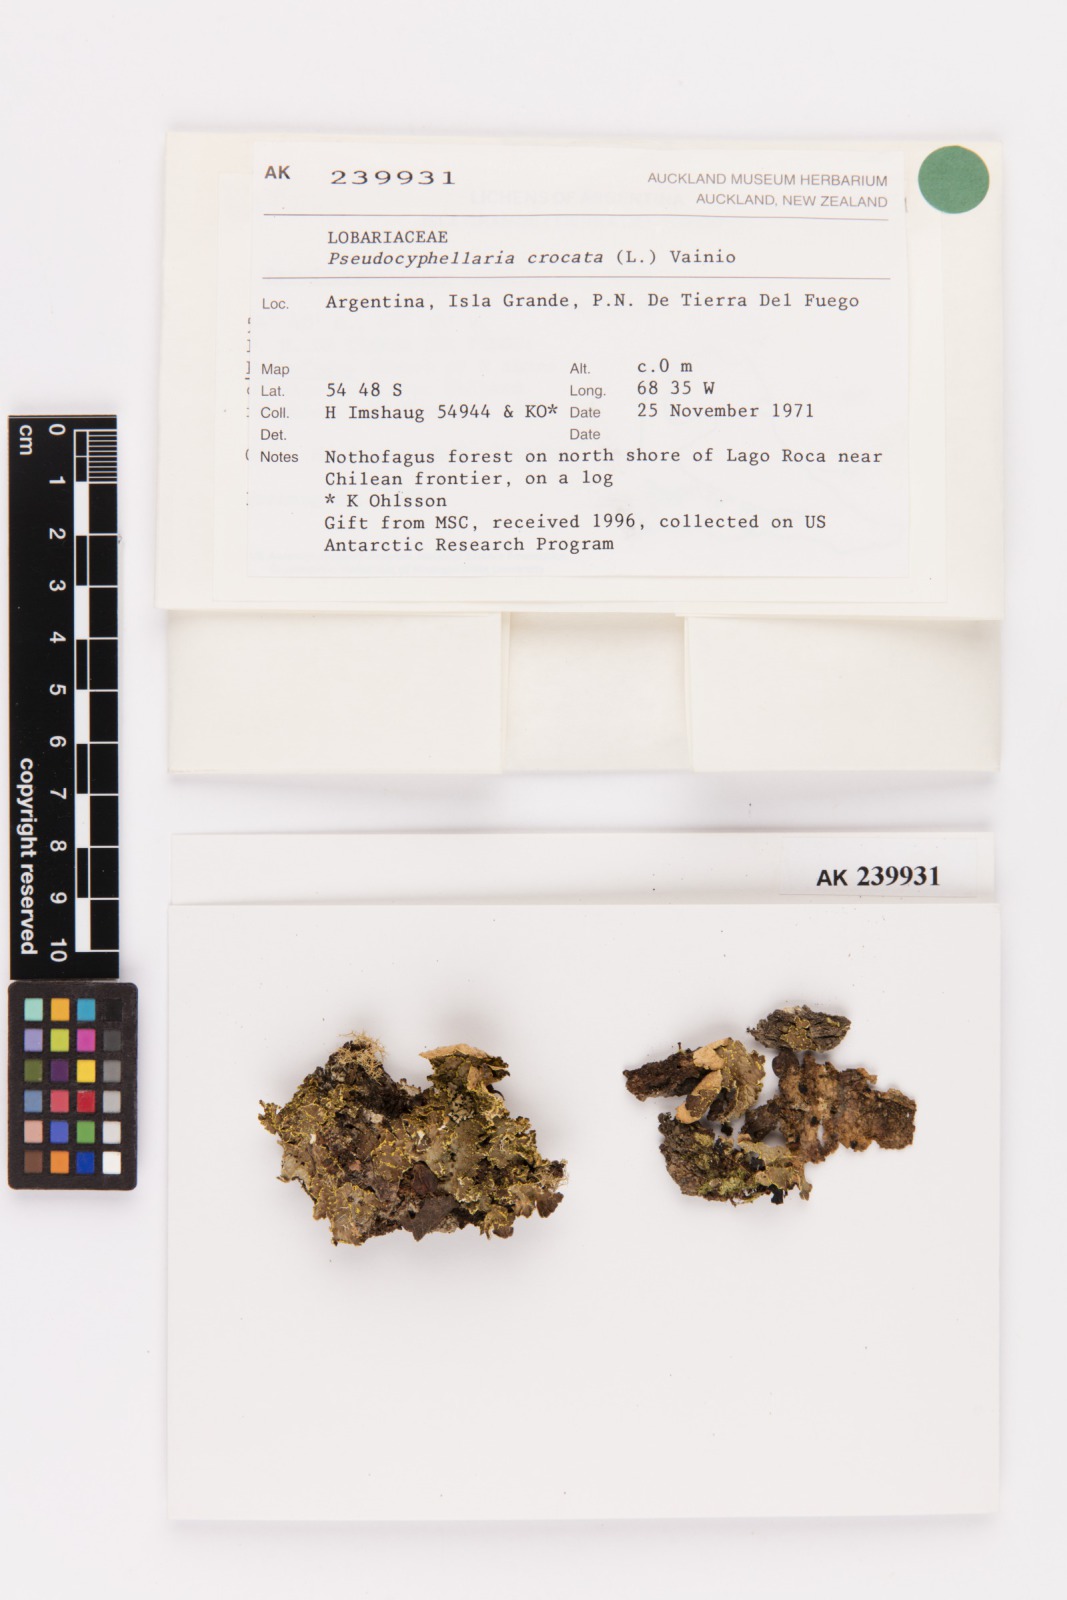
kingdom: Fungi
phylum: Ascomycota
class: Lecanoromycetes
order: Peltigerales
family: Lobariaceae
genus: Pseudocyphellaria
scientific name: Pseudocyphellaria crocata
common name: Golden specklebelly
